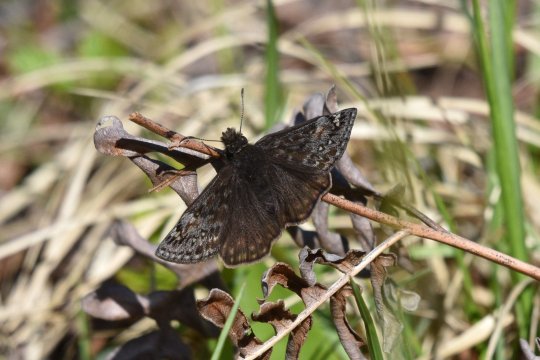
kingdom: Animalia
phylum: Arthropoda
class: Insecta
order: Lepidoptera
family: Hesperiidae
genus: Gesta
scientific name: Gesta
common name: Juvenal's Duskywing
